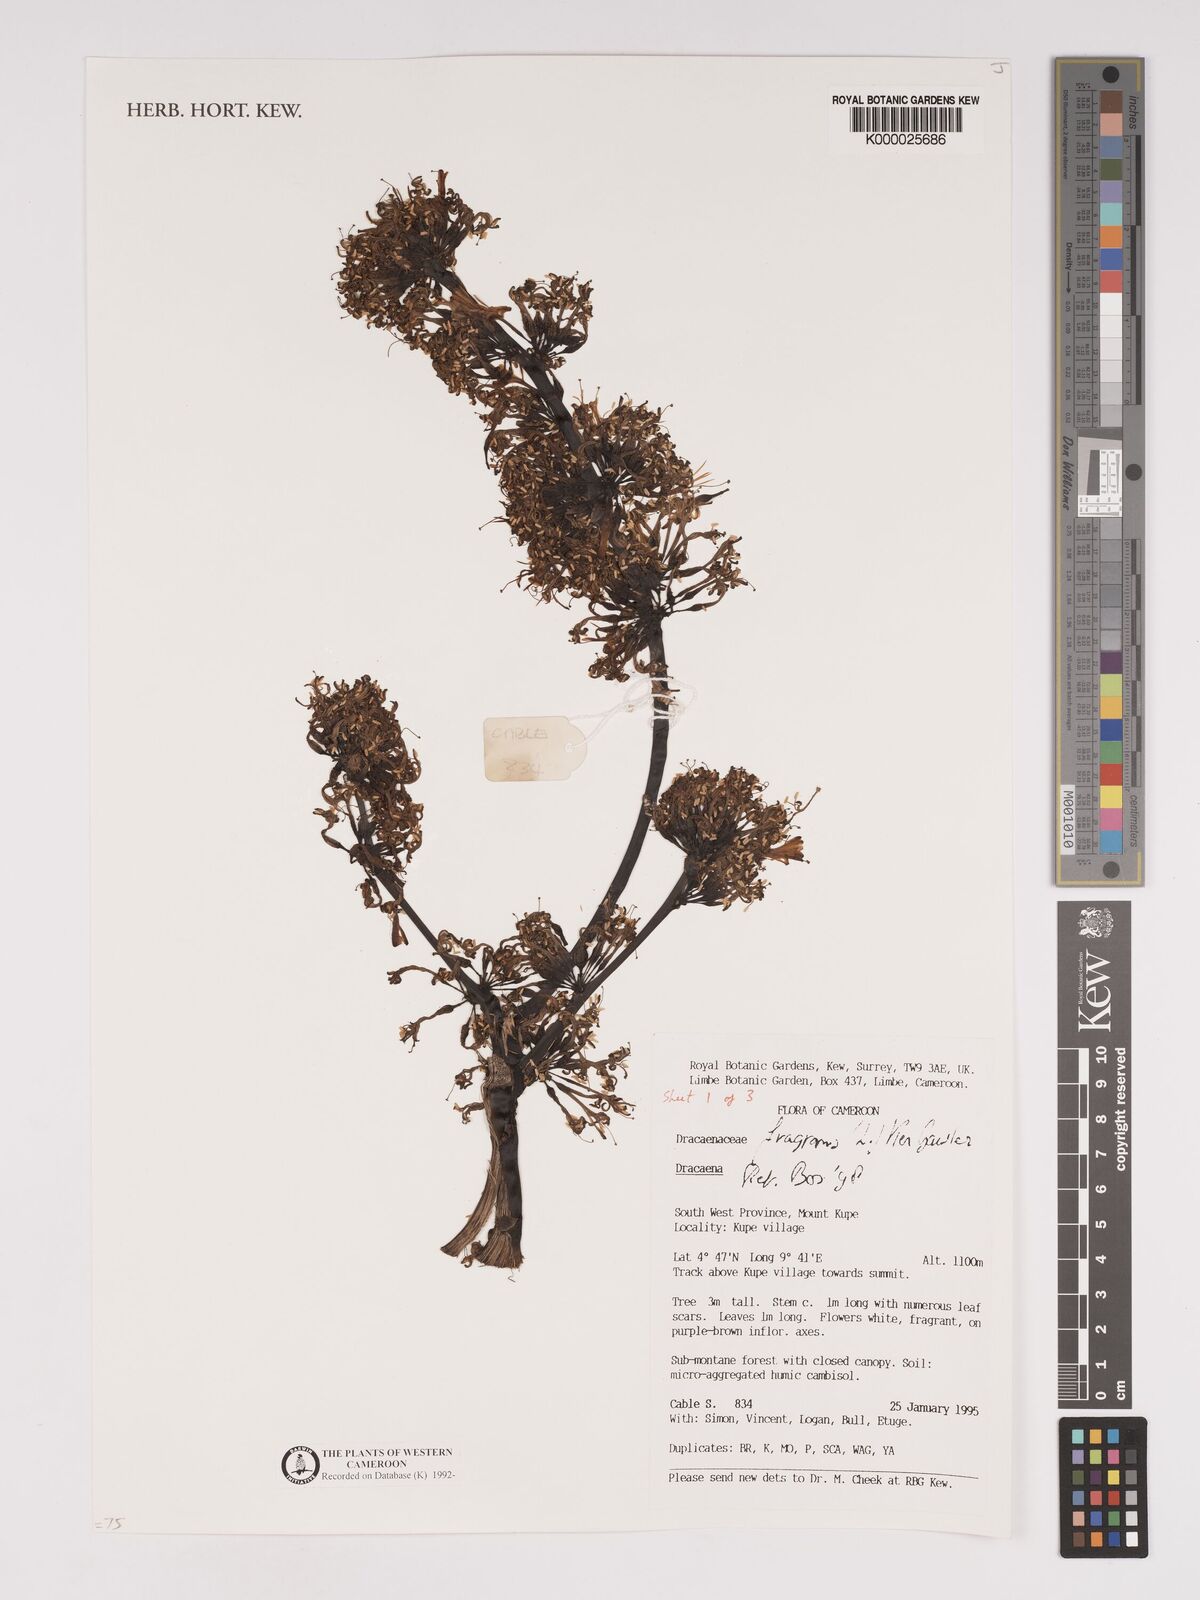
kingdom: Plantae
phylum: Tracheophyta
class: Liliopsida
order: Asparagales
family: Asparagaceae
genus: Dracaena
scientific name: Dracaena fragrans
